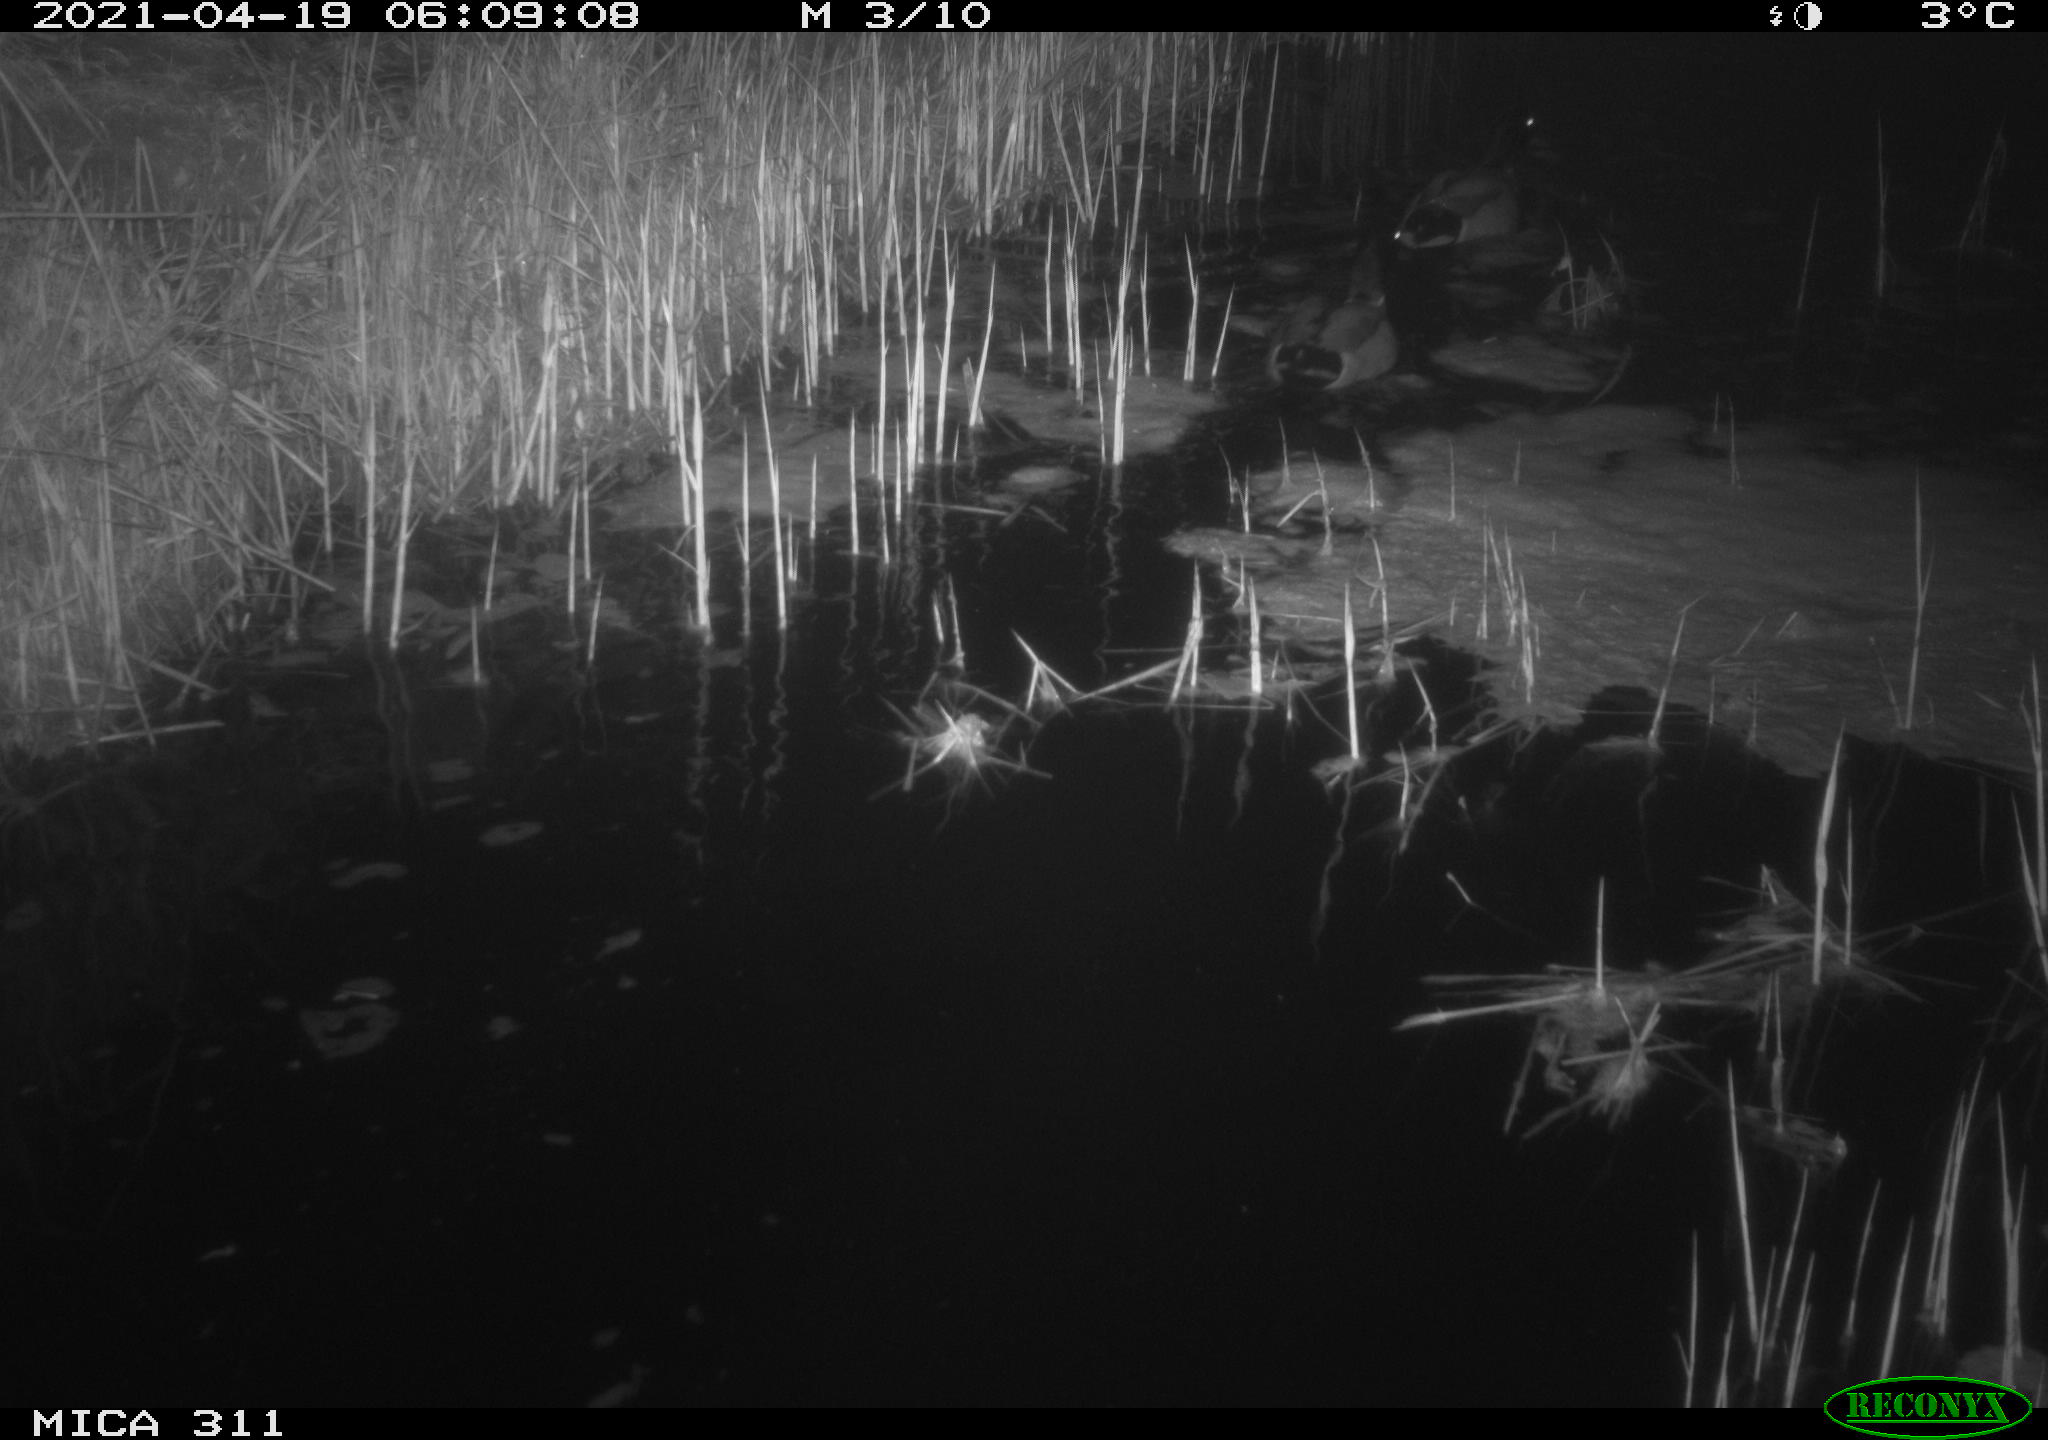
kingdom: Animalia
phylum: Chordata
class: Aves
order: Anseriformes
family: Anatidae
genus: Anas
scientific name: Anas platyrhynchos
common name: Mallard
